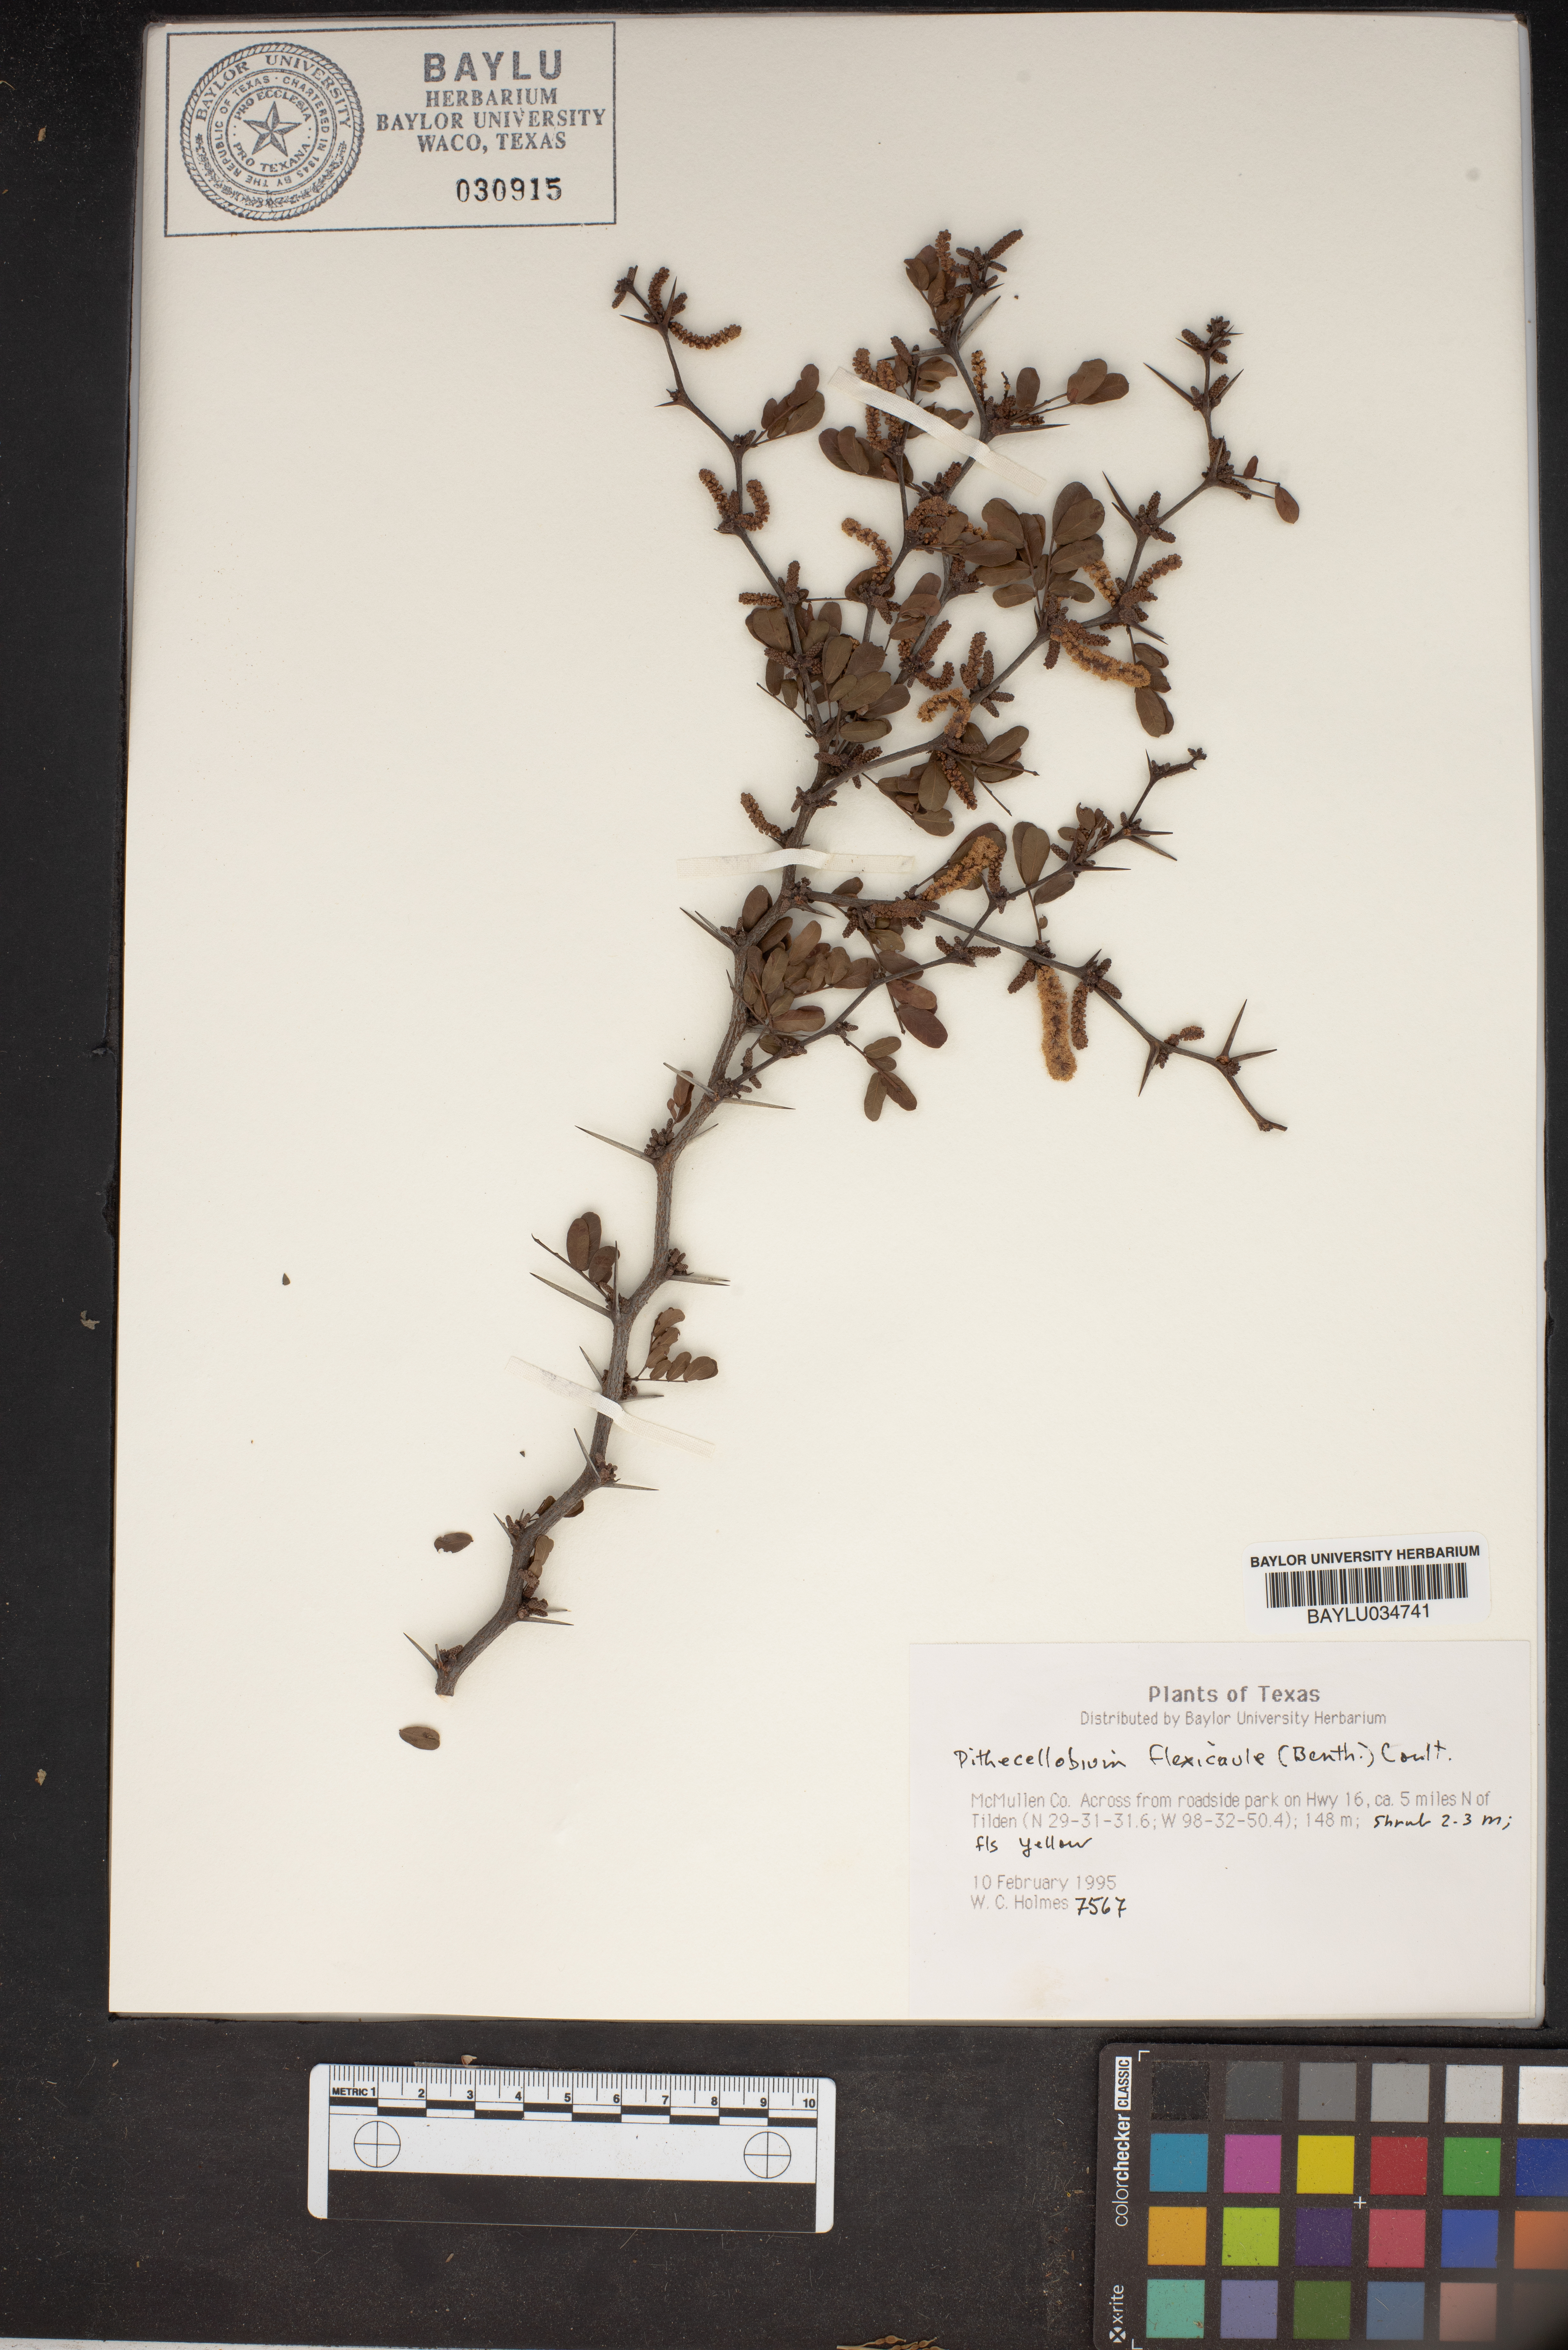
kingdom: Plantae
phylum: Tracheophyta
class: Magnoliopsida
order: Fabales
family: Fabaceae
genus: Ebenopsis
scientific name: Ebenopsis ebano
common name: Ebony blackbead
